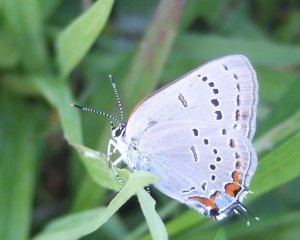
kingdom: Animalia
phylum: Arthropoda
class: Insecta
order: Lepidoptera
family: Lycaenidae
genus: Strymon
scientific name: Strymon acadica
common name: Acadian Hairstreak
